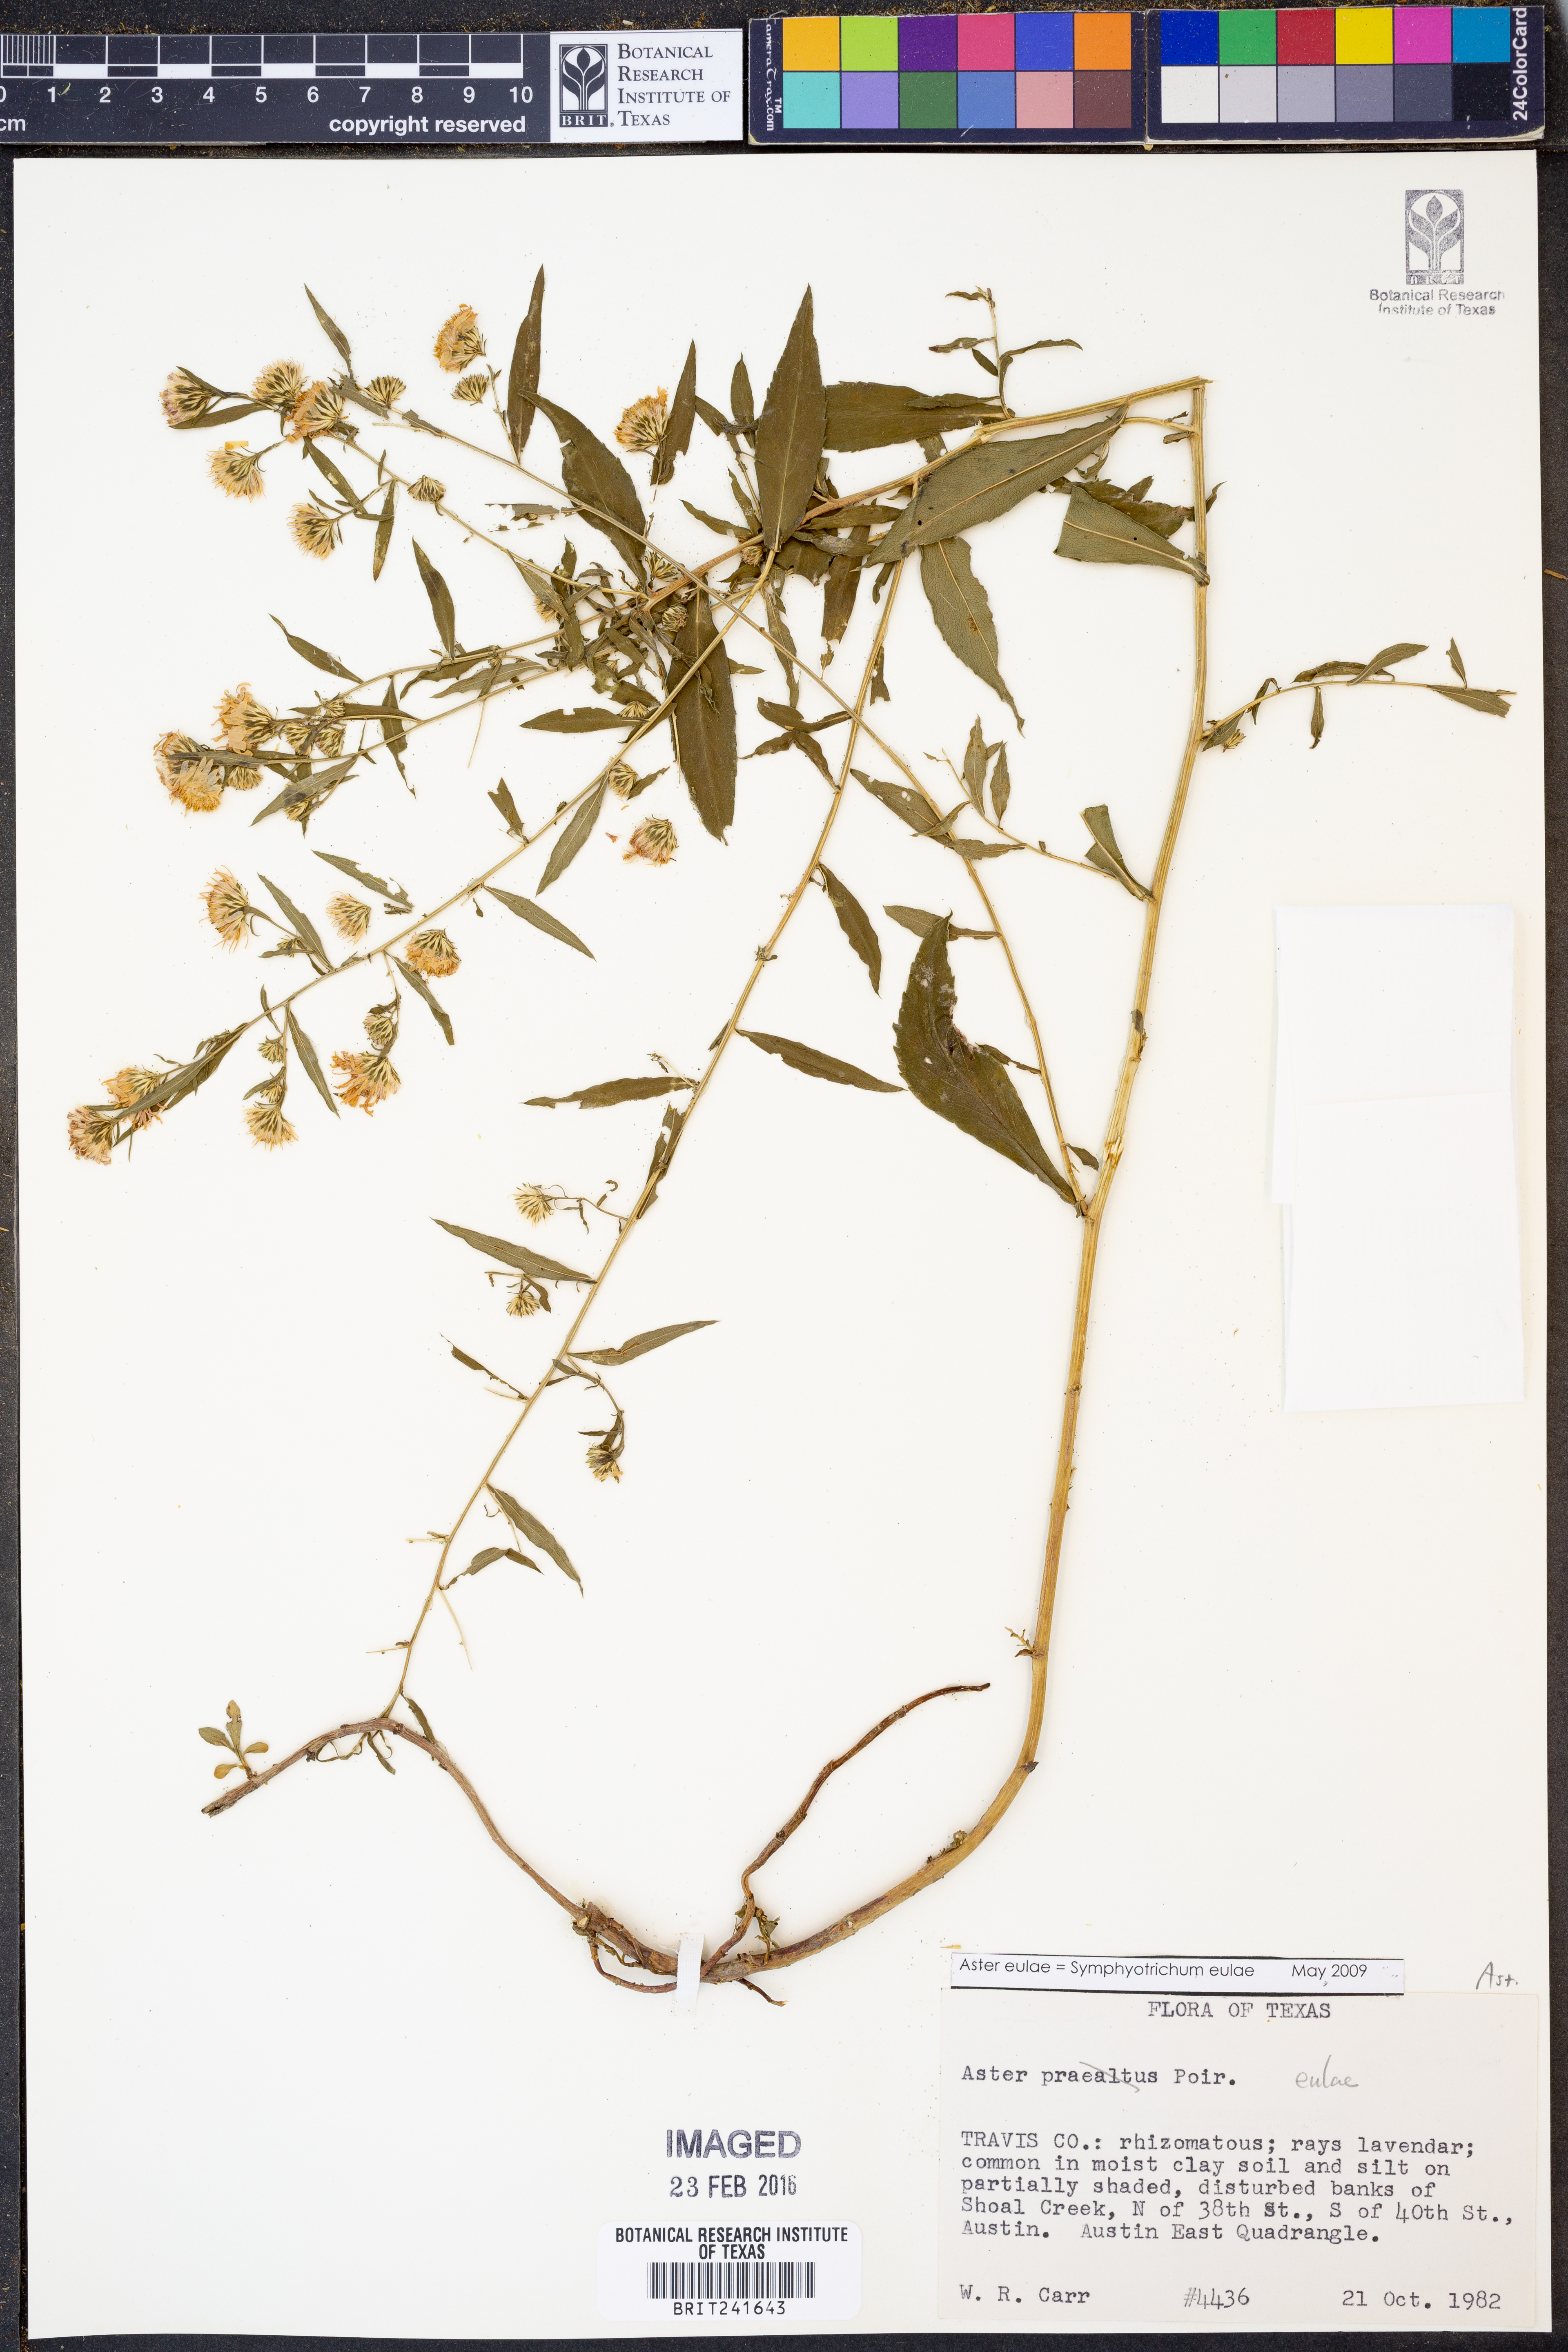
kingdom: Plantae
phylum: Tracheophyta
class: Magnoliopsida
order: Asterales
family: Asteraceae
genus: Symphyotrichum
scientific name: Symphyotrichum eulae
